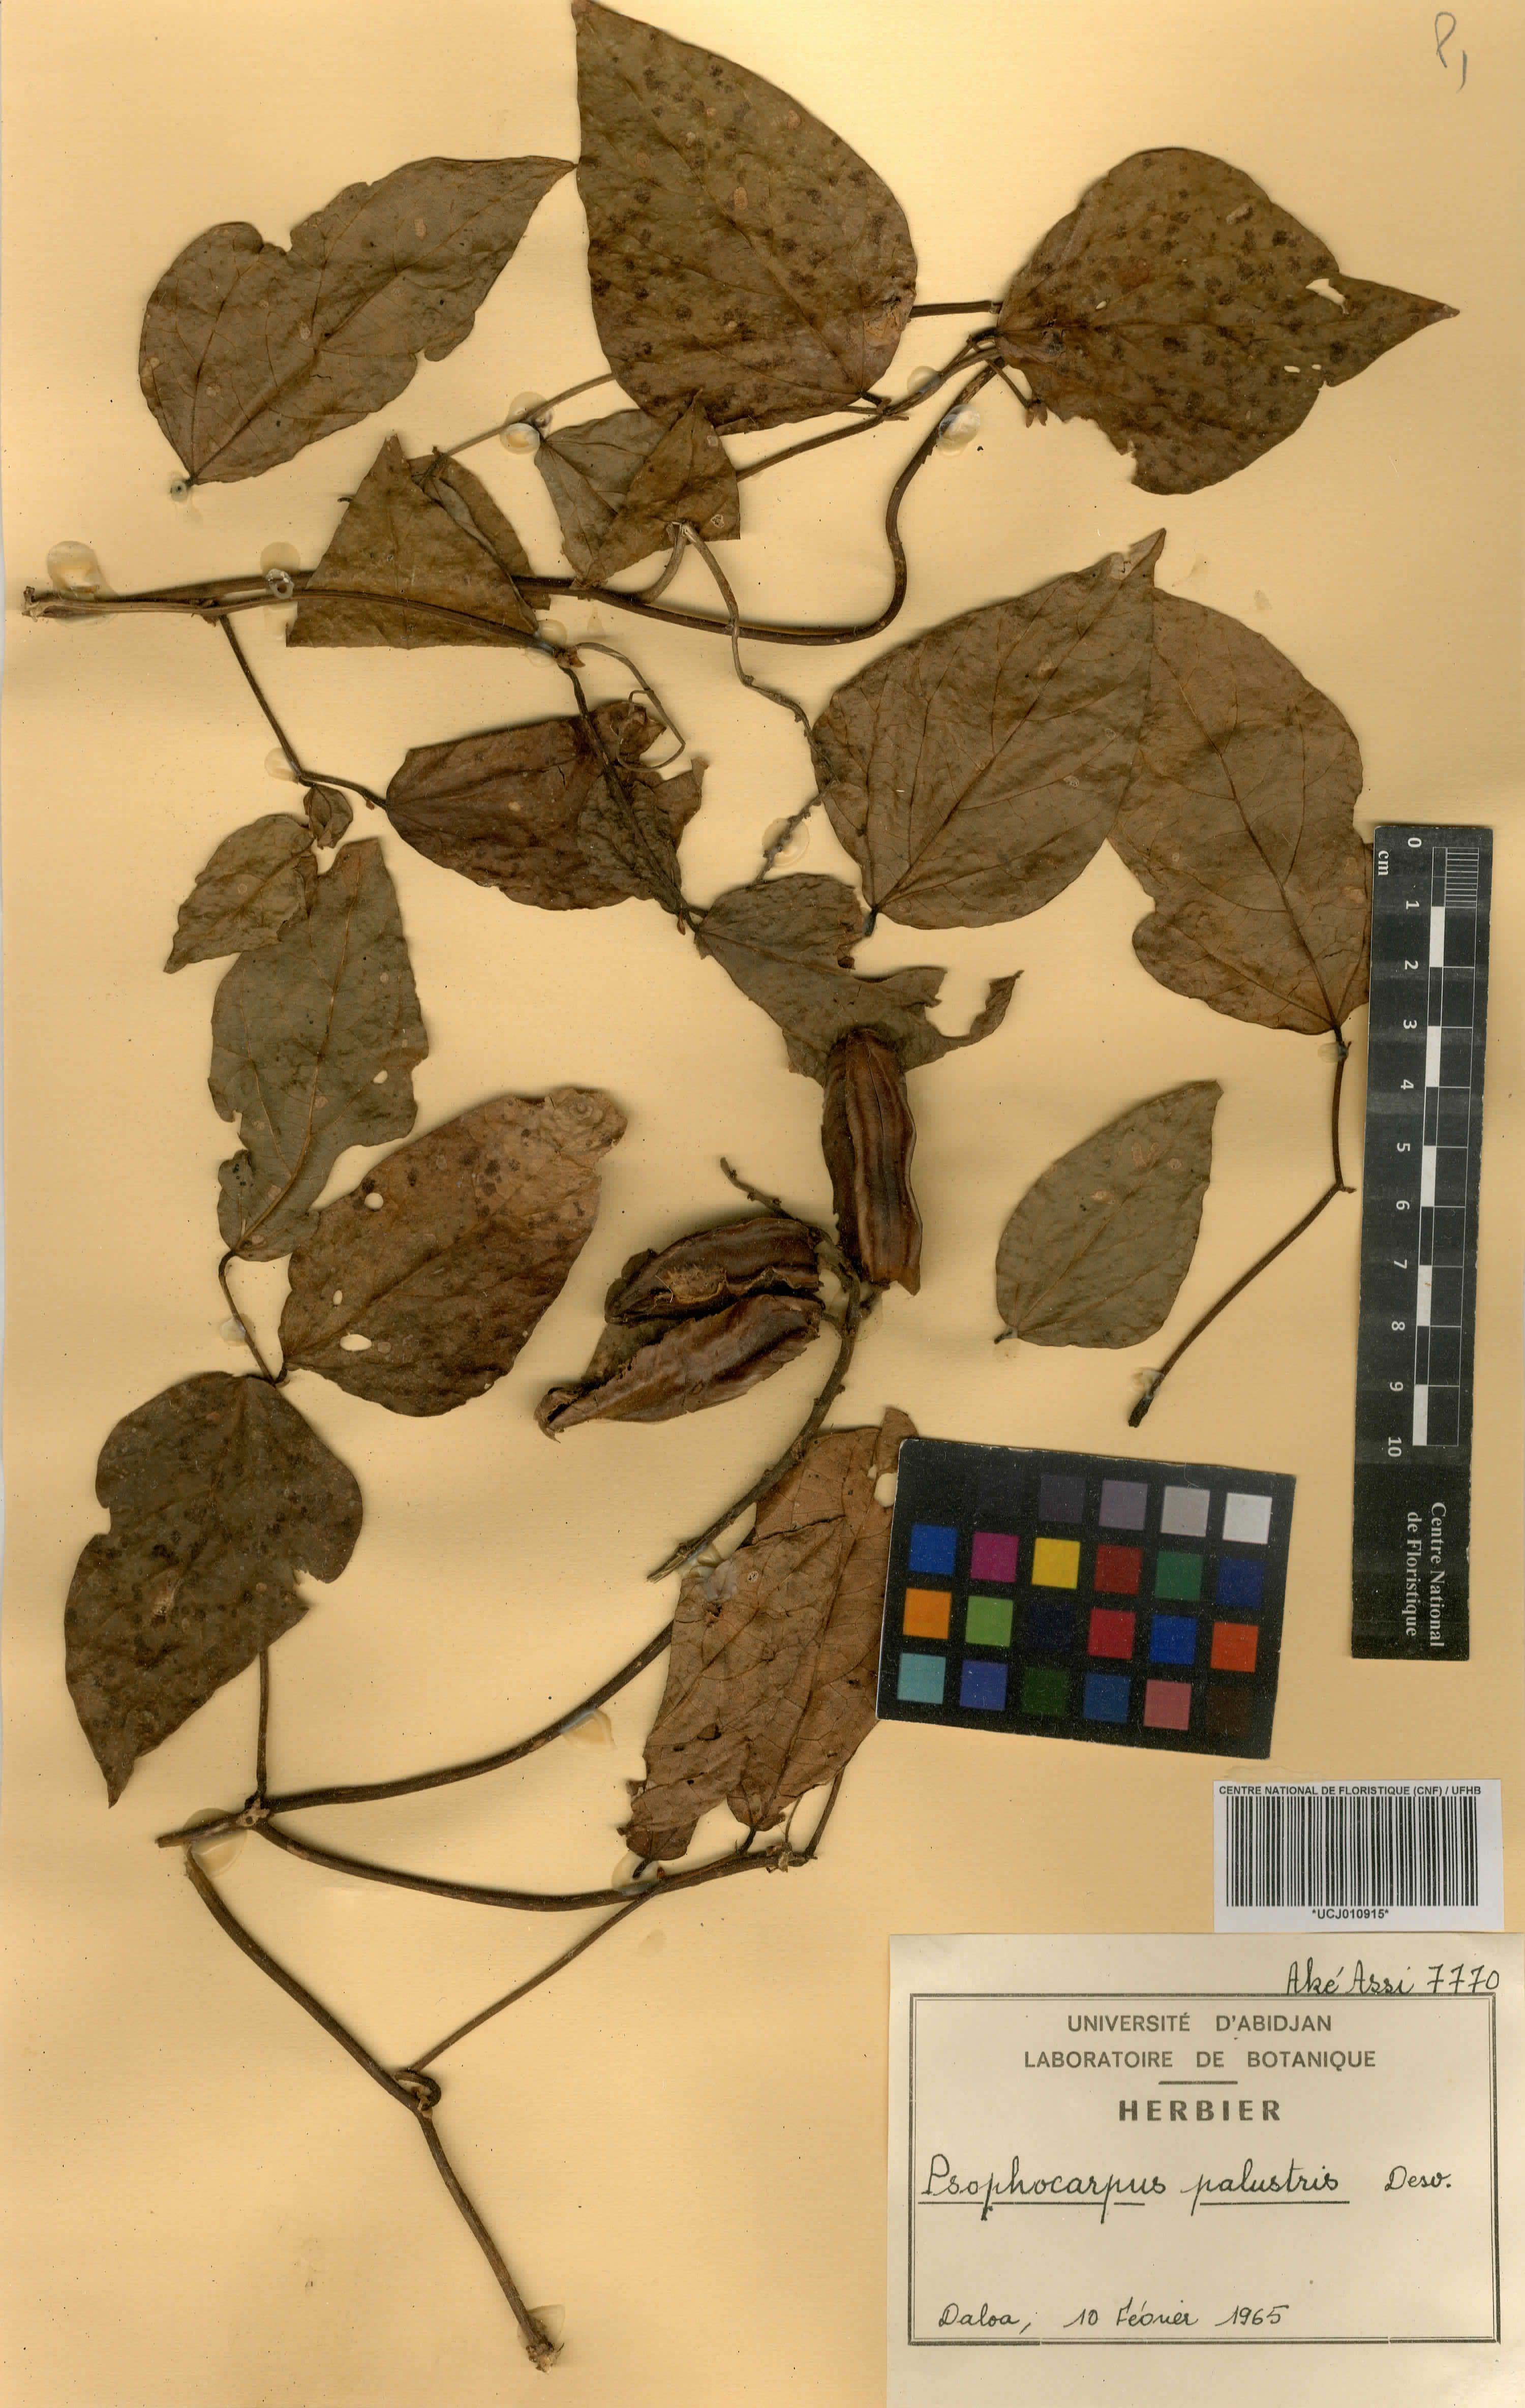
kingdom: Plantae
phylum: Tracheophyta
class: Magnoliopsida
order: Fabales
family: Fabaceae
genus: Psophocarpus
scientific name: Psophocarpus palustris
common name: African winged-bean
